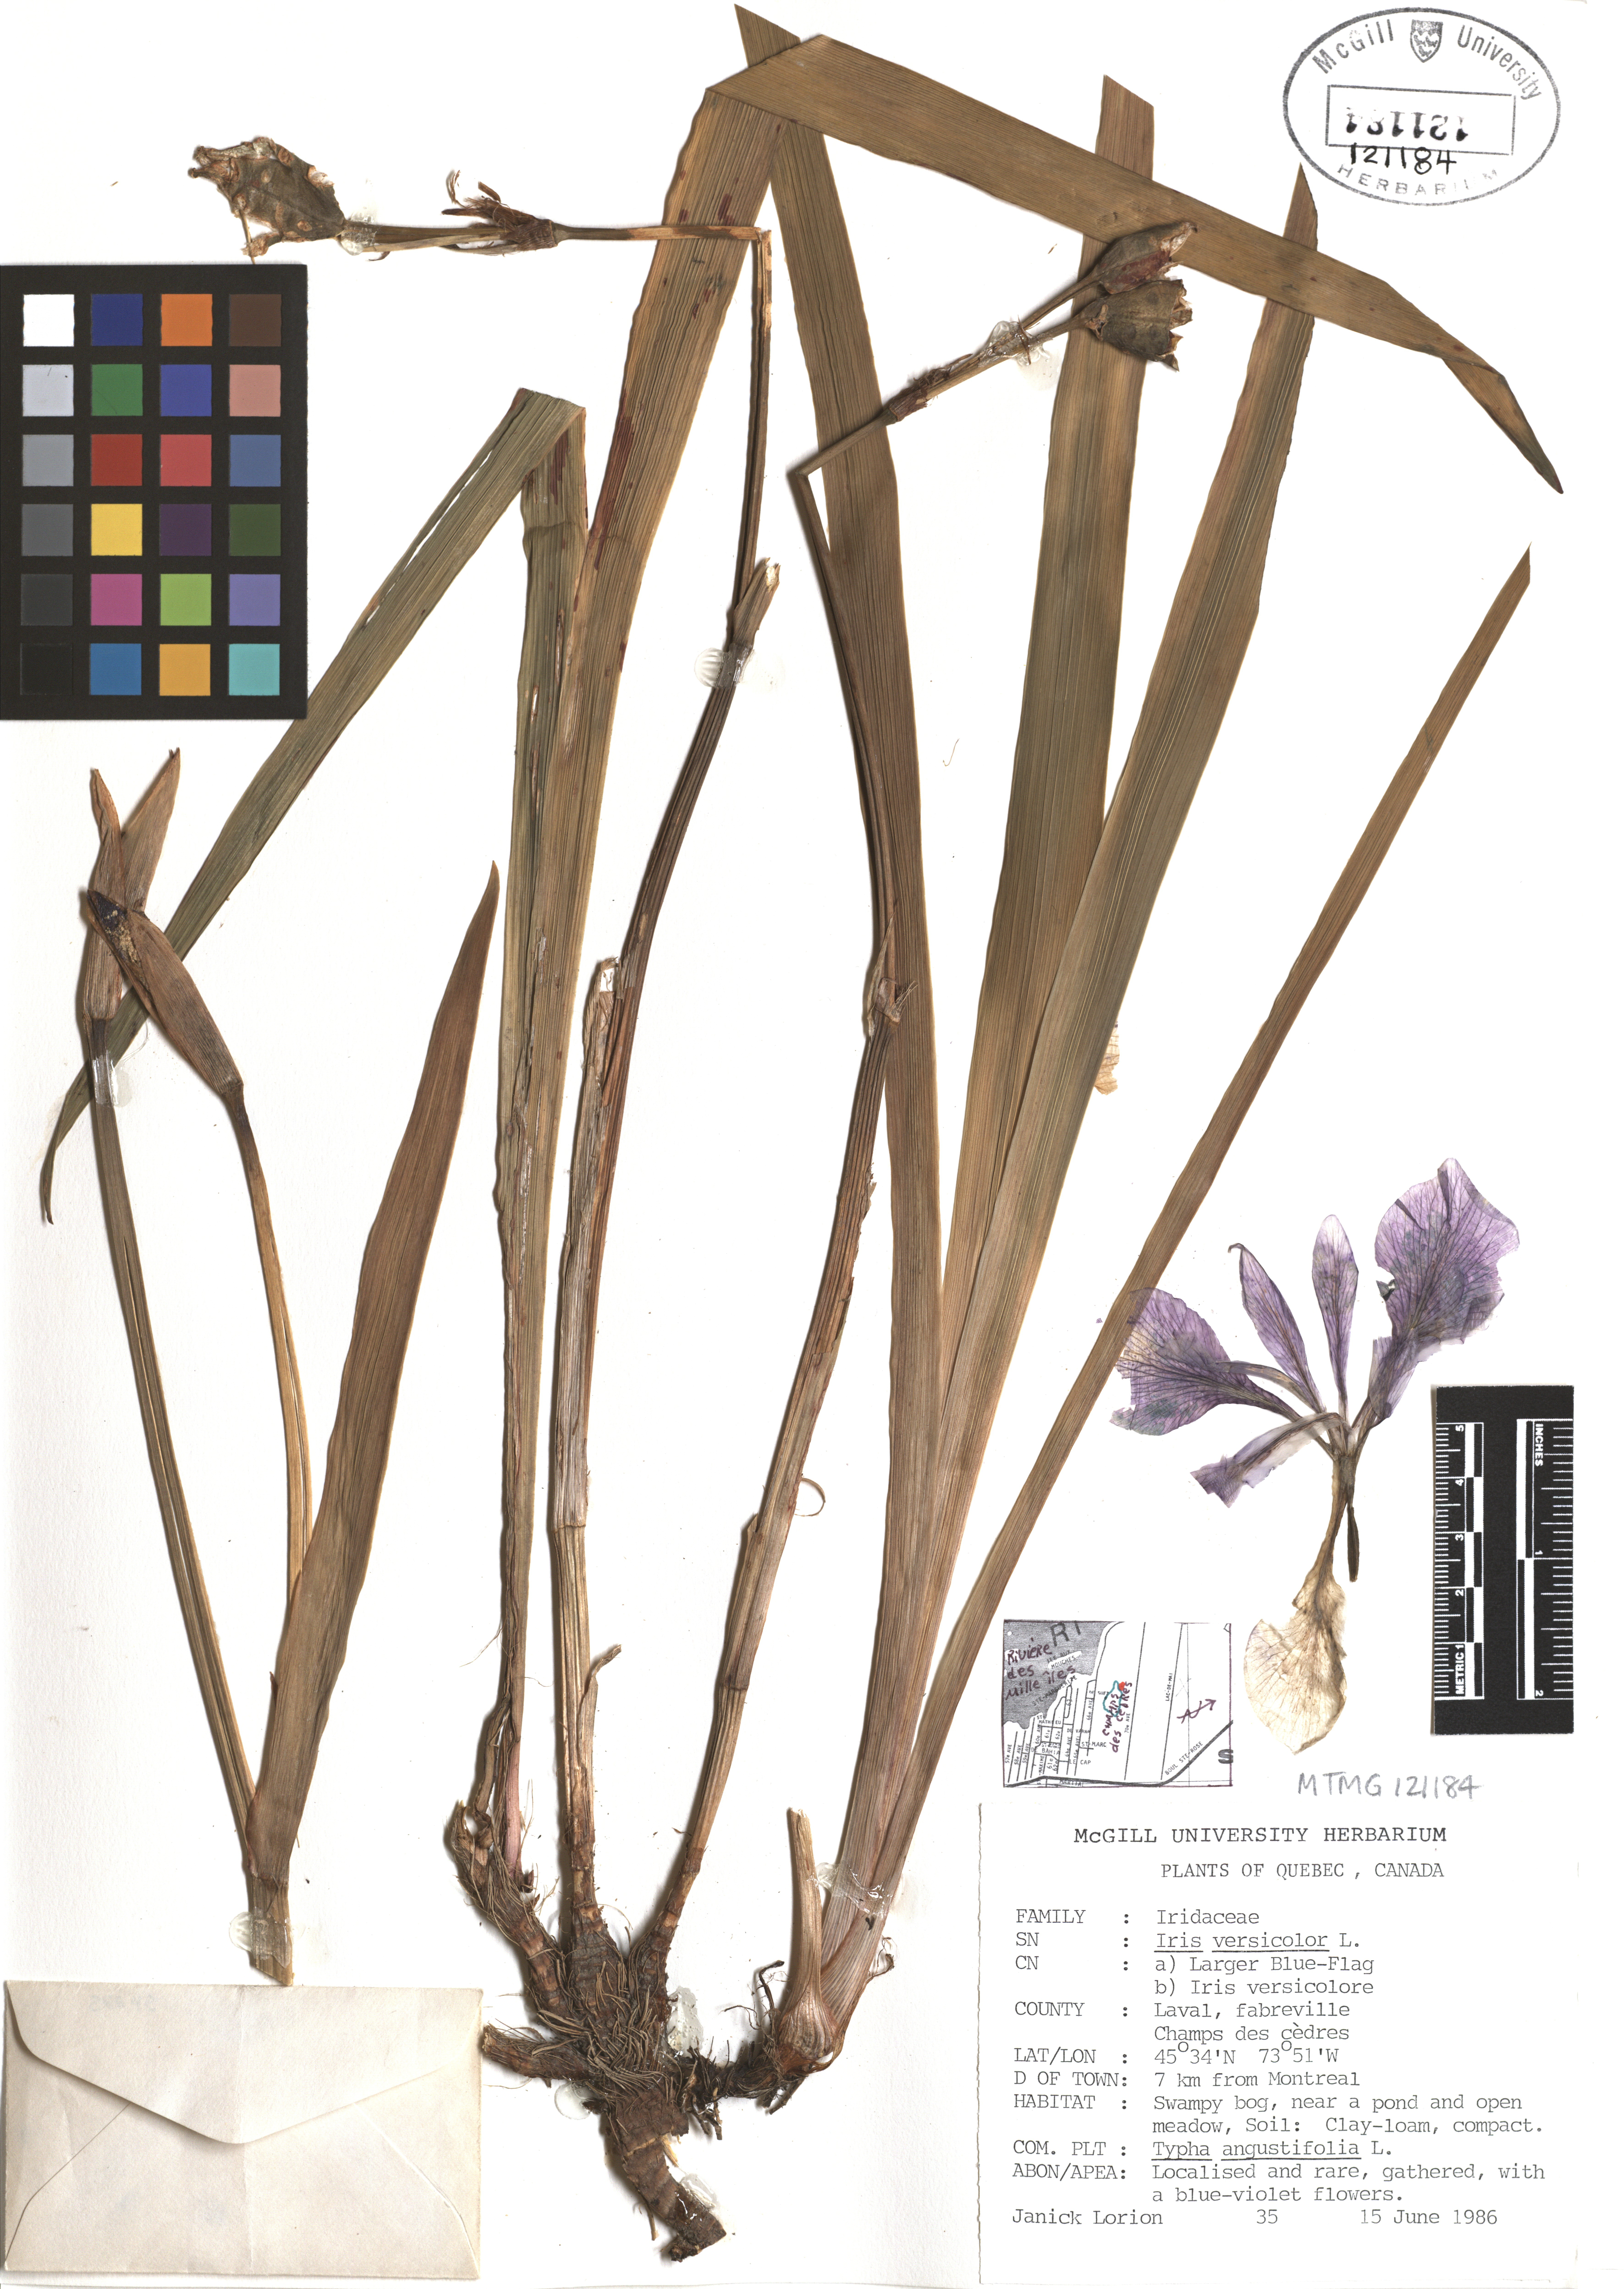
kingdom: Plantae
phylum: Tracheophyta
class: Liliopsida
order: Asparagales
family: Iridaceae
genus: Iris
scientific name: Iris versicolor
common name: Purple iris
